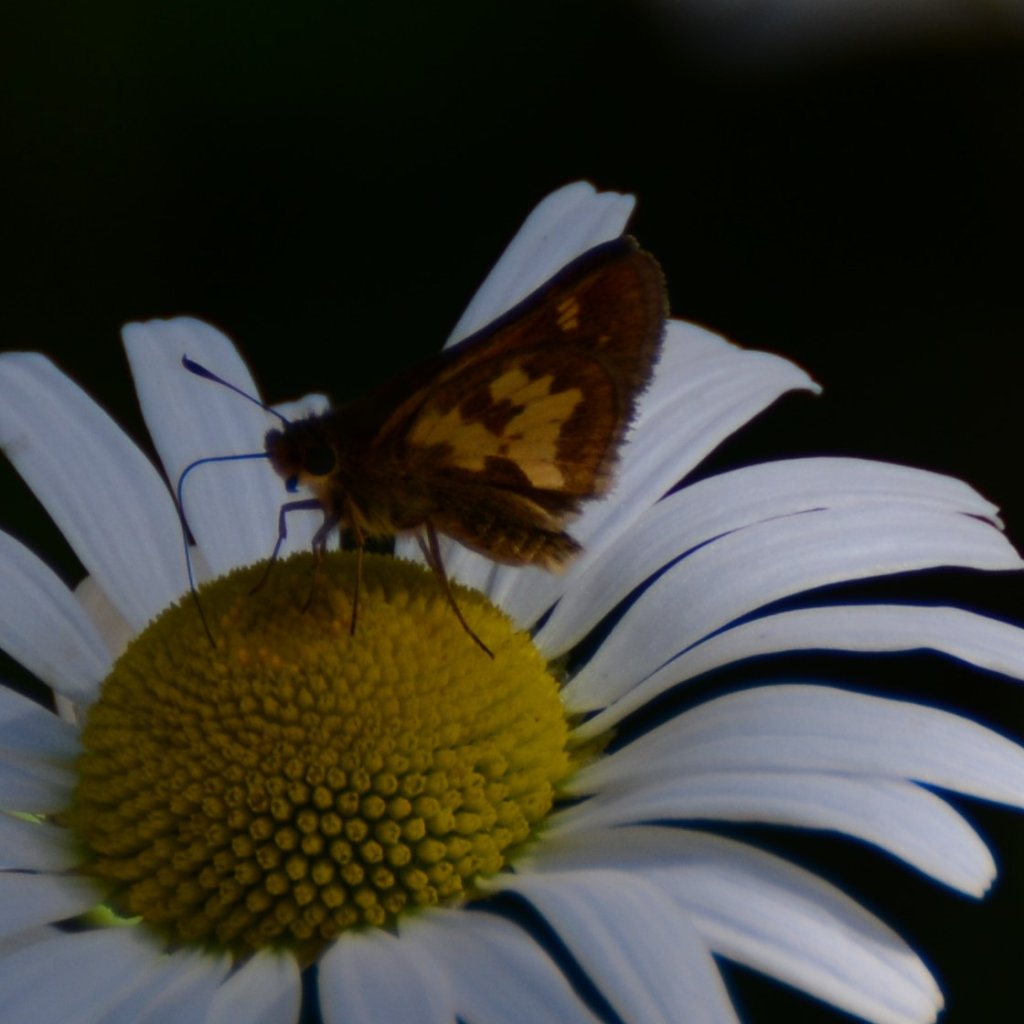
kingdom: Animalia
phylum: Arthropoda
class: Insecta
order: Lepidoptera
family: Hesperiidae
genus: Polites
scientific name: Polites coras
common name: Peck's Skipper
